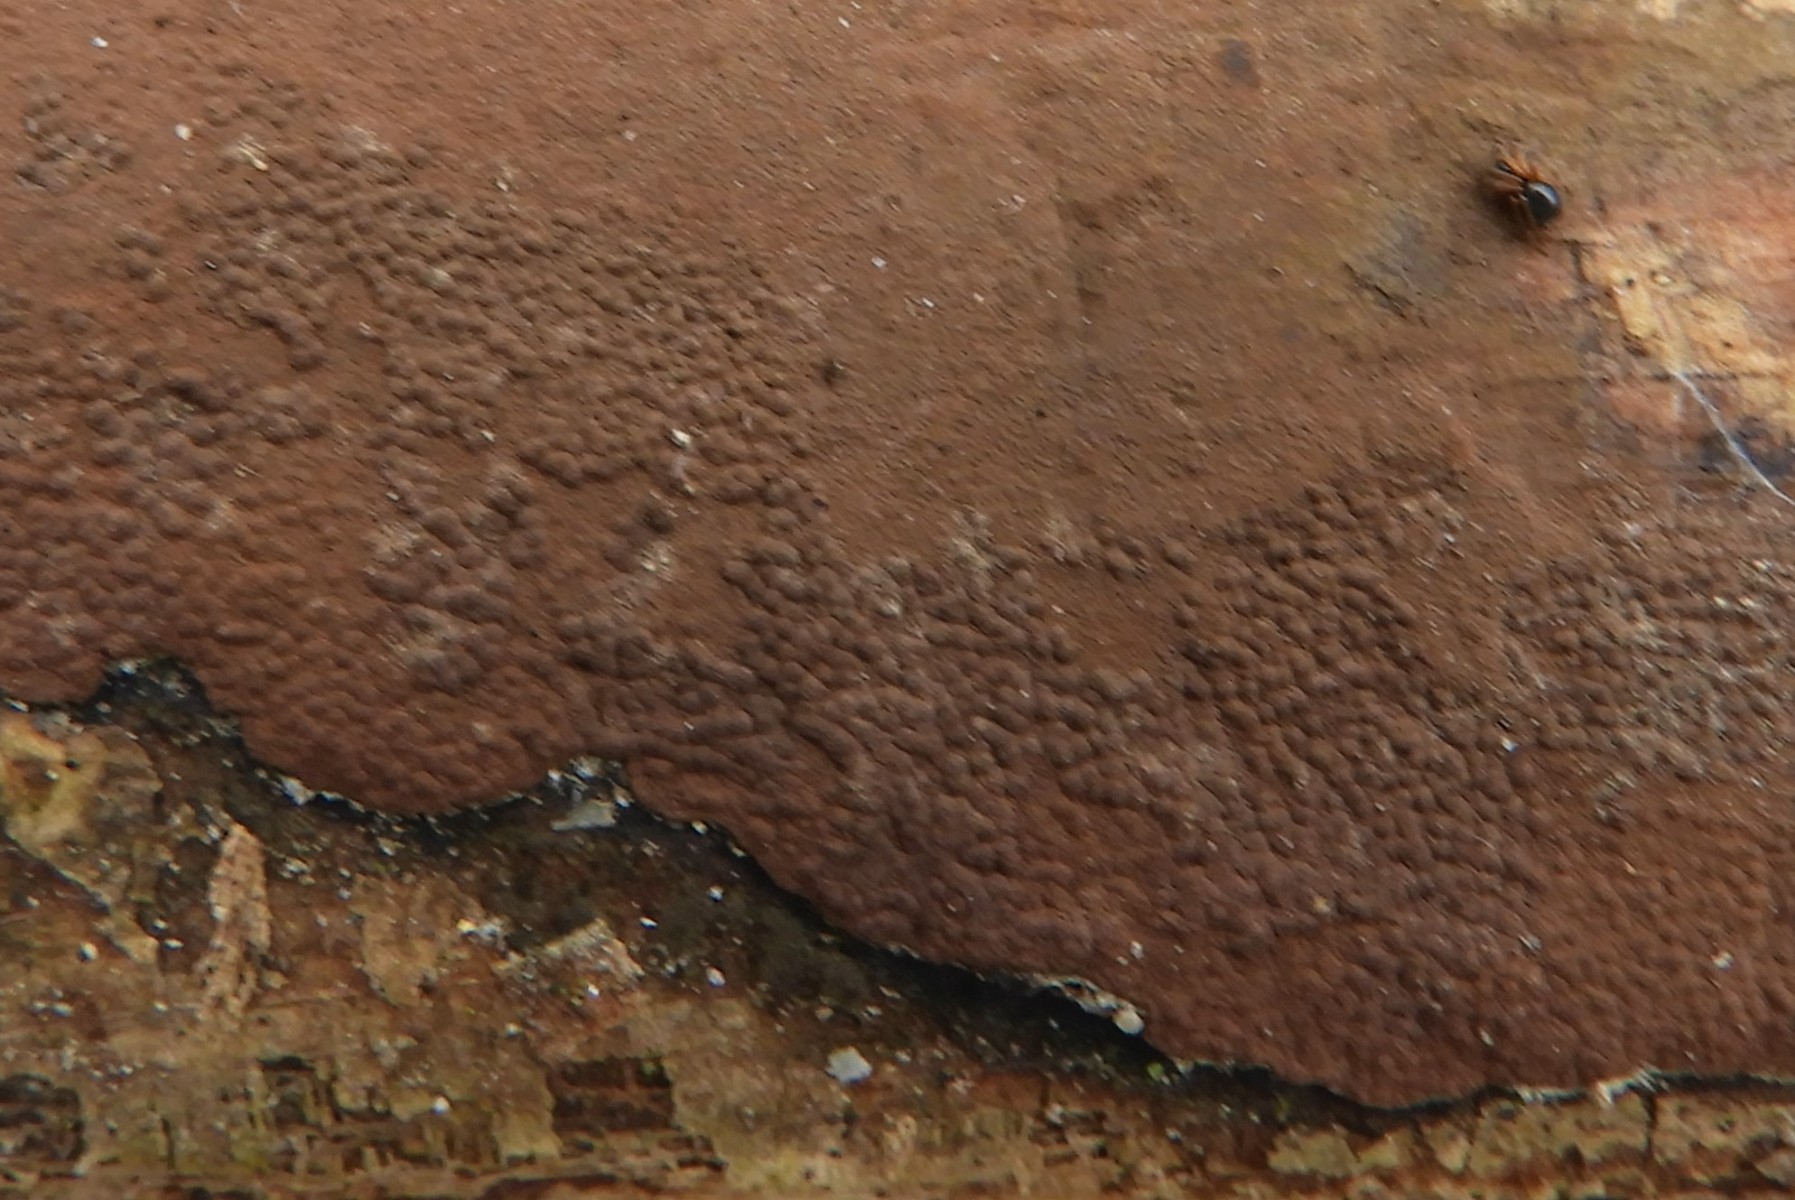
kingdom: Fungi
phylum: Ascomycota
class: Sordariomycetes
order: Xylariales
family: Hypoxylaceae
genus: Hypoxylon
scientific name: Hypoxylon
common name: kulbær
